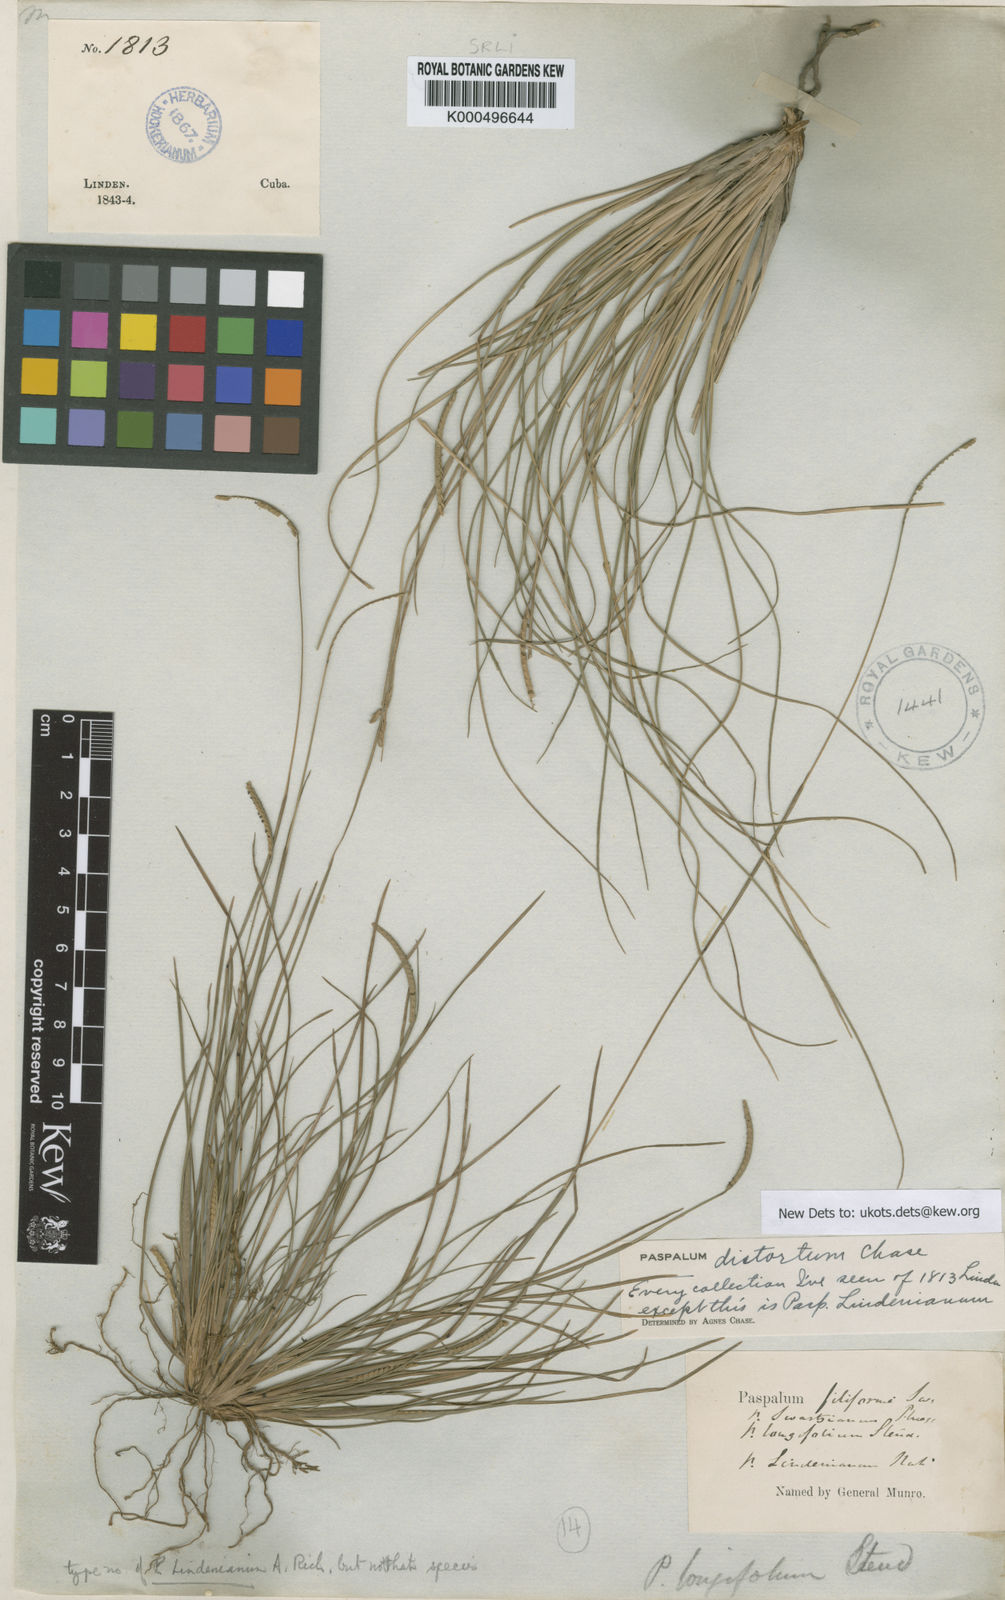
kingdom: Plantae
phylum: Tracheophyta
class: Liliopsida
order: Poales
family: Poaceae
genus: Paspalum
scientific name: Paspalum distortum
